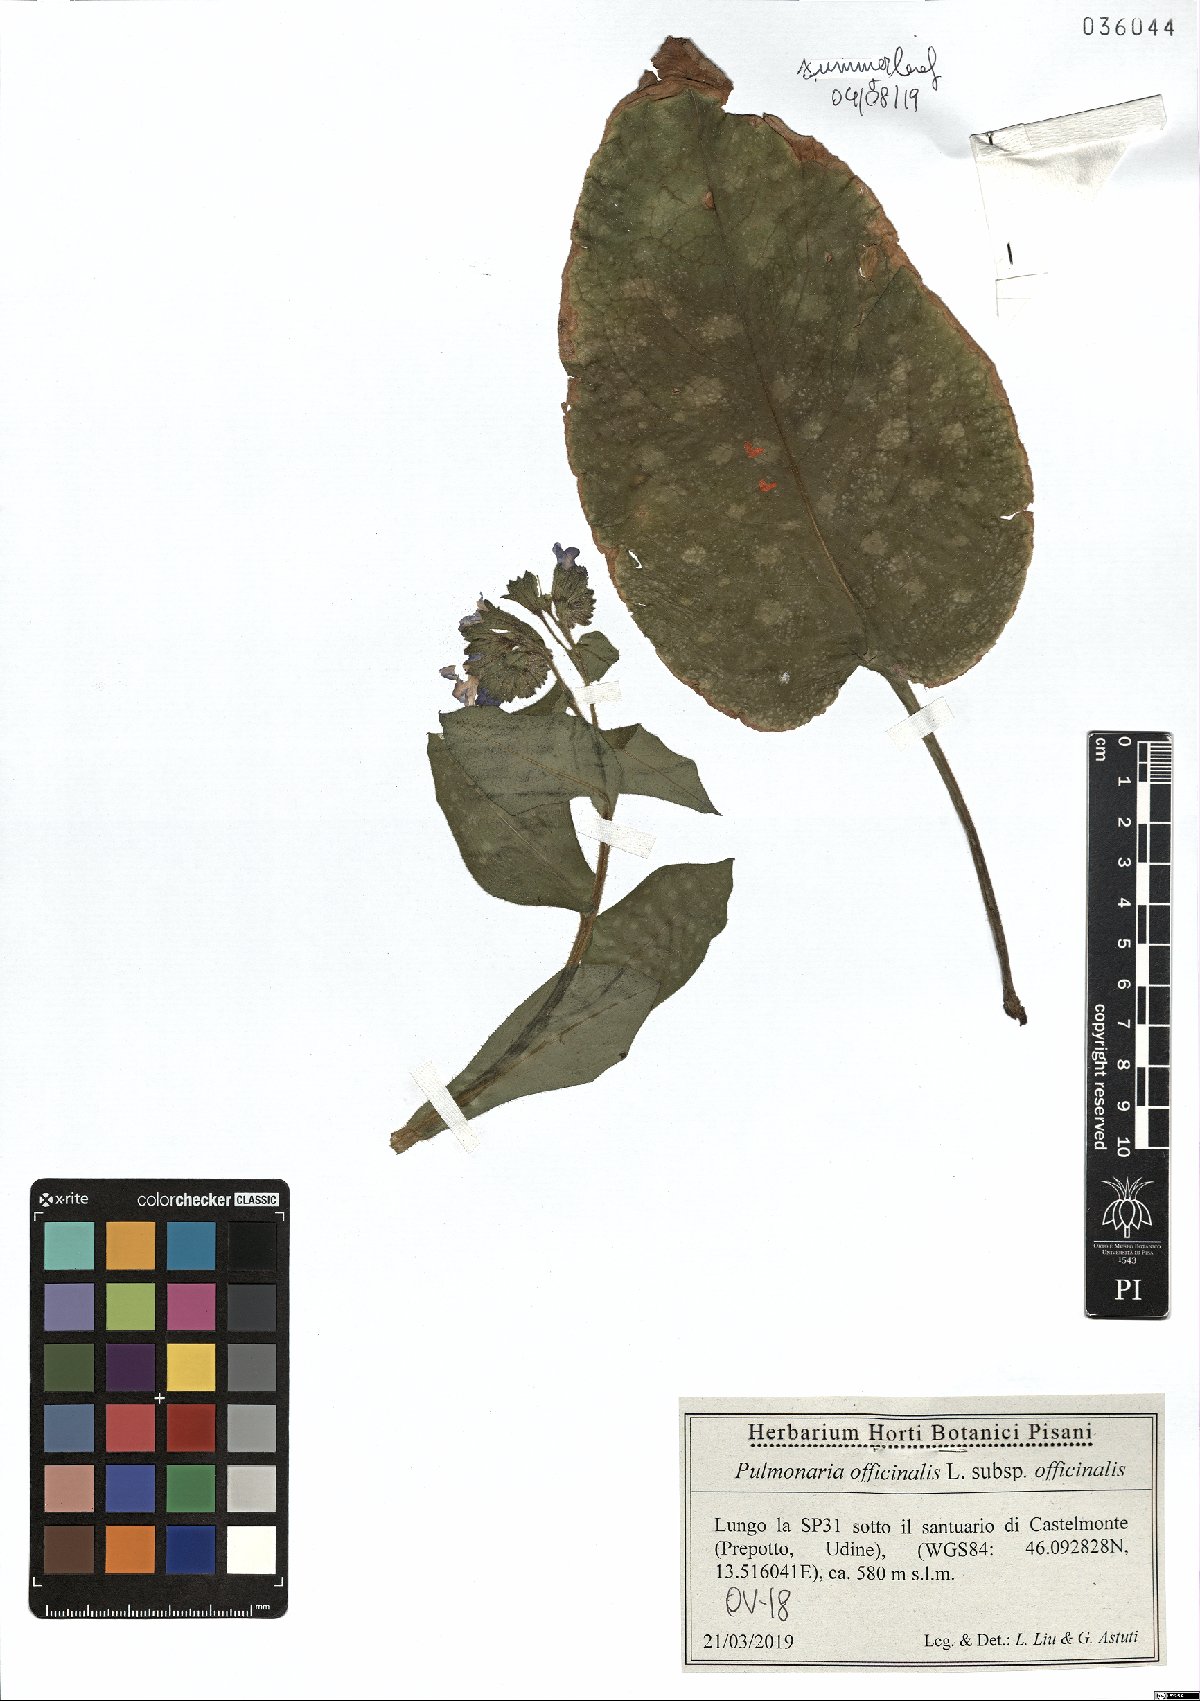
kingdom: Plantae
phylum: Tracheophyta
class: Magnoliopsida
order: Boraginales
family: Boraginaceae
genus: Pulmonaria
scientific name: Pulmonaria officinalis
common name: Lungwort
